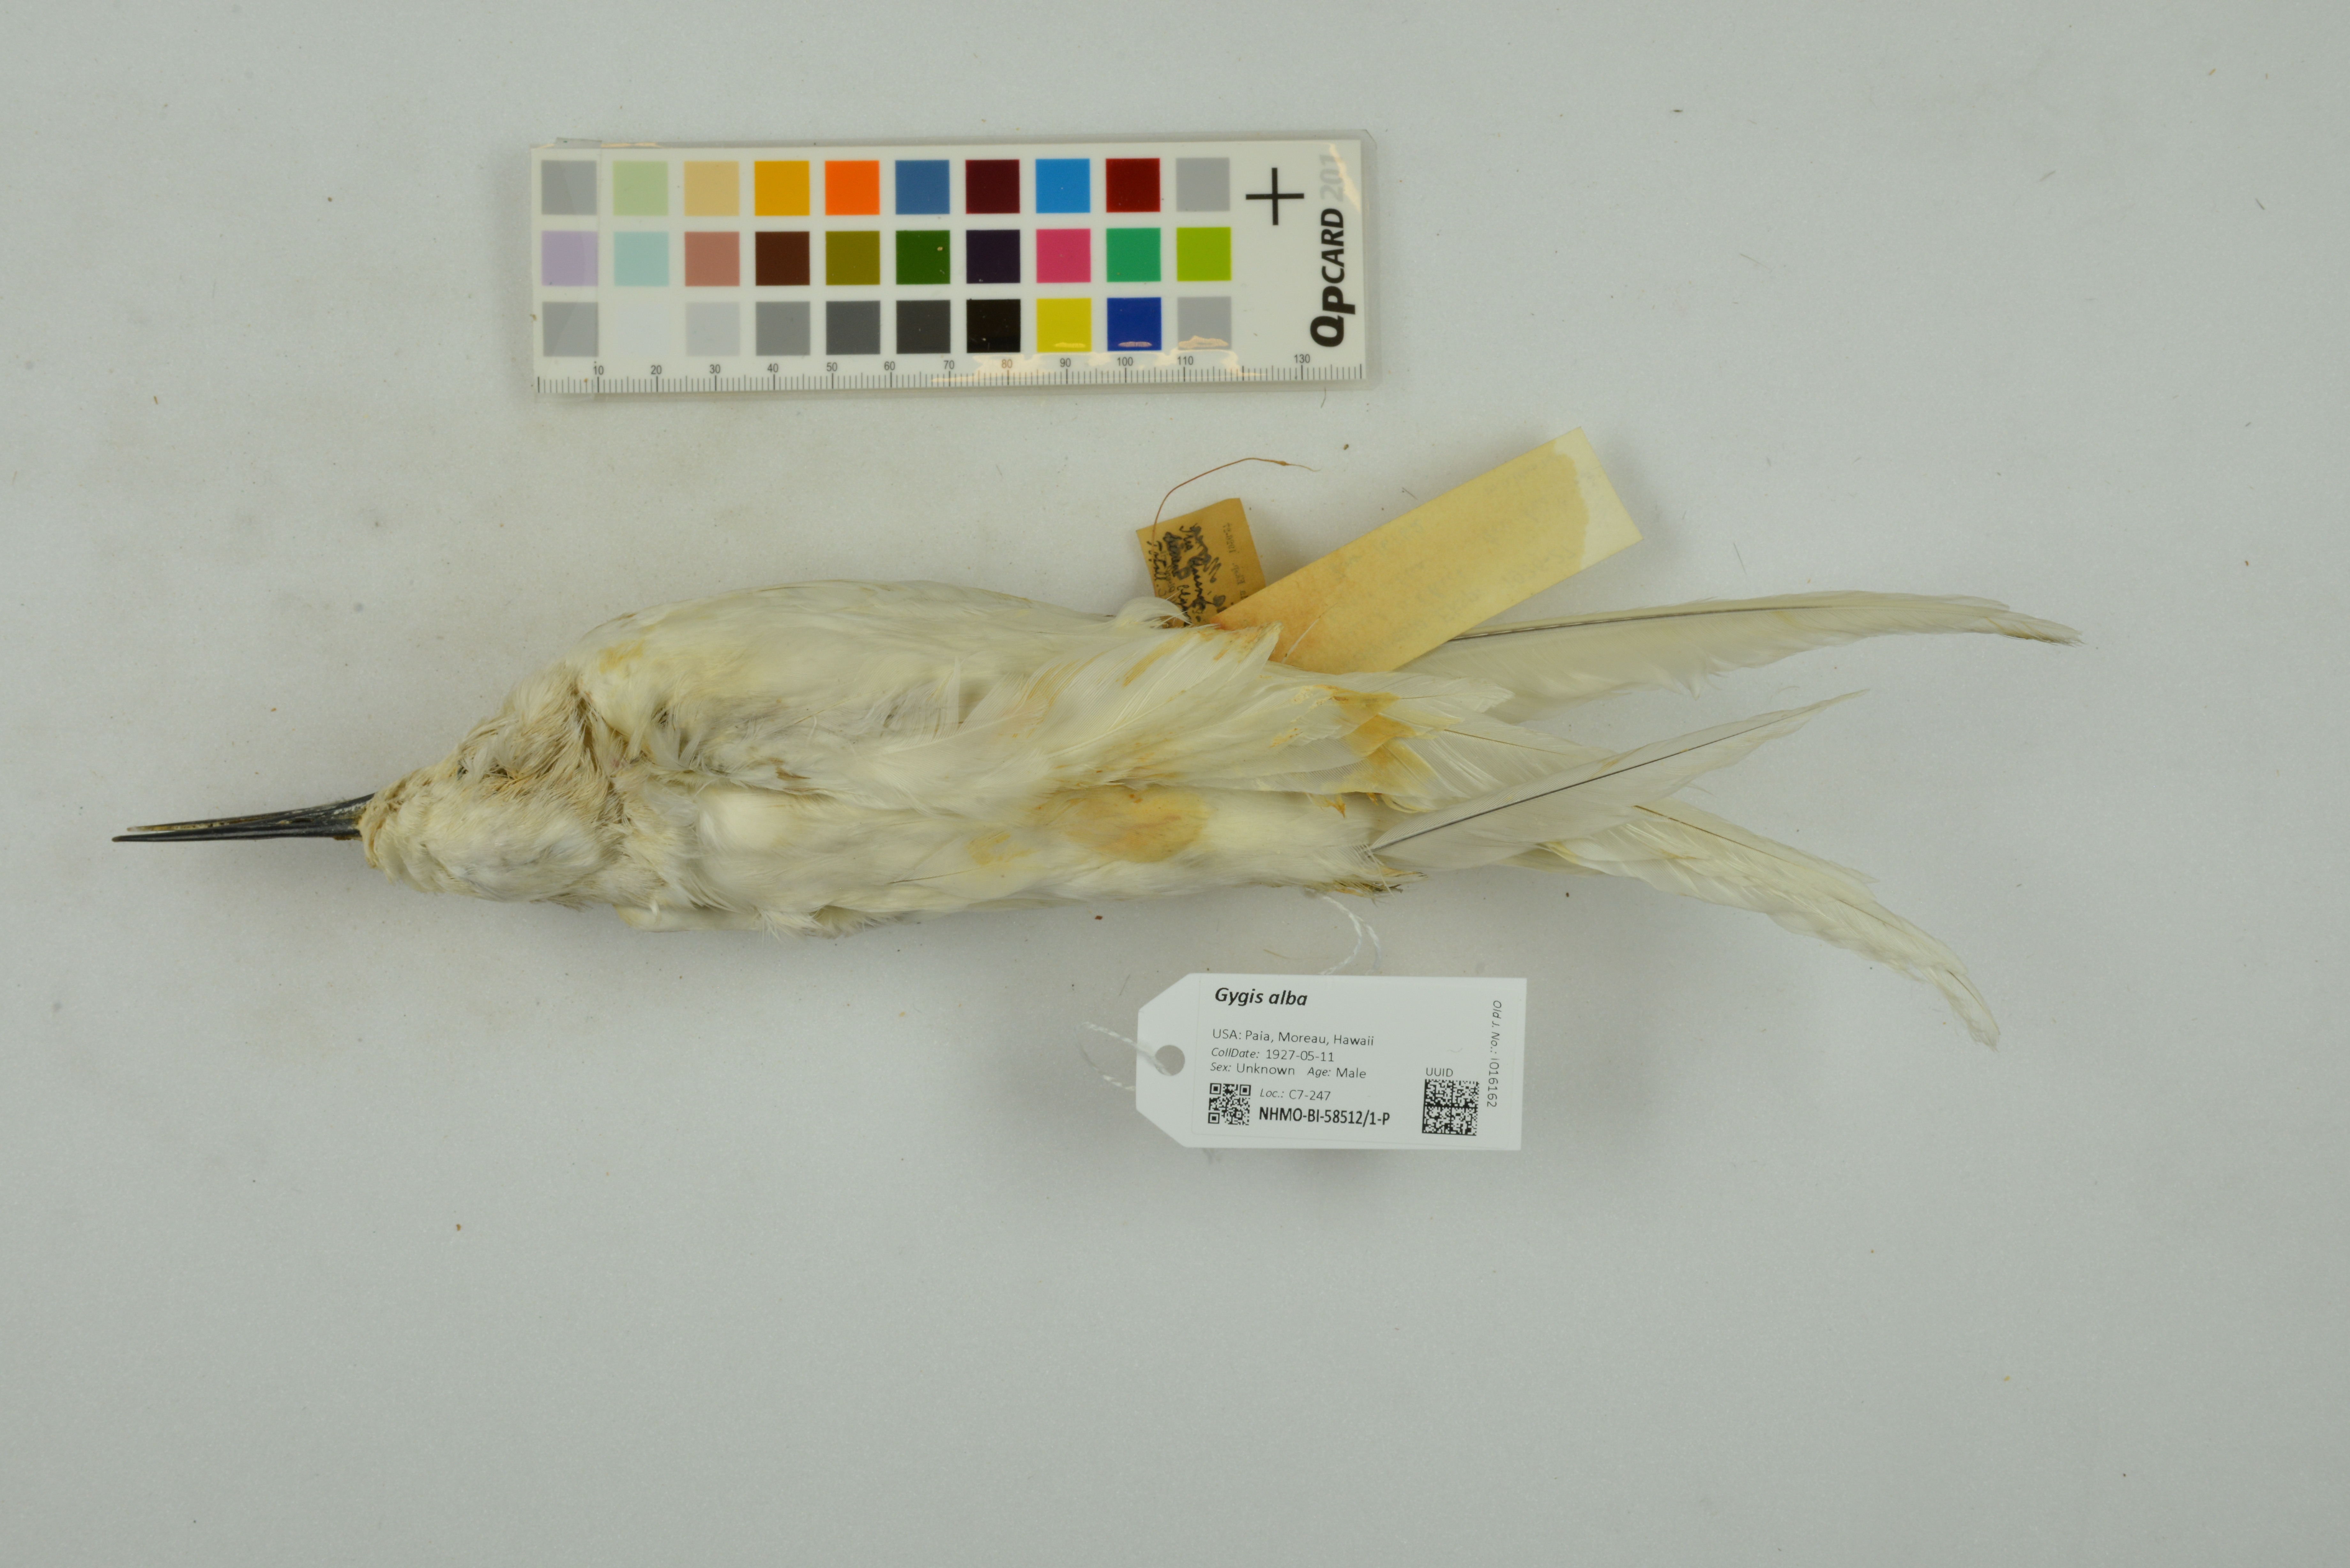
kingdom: Animalia
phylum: Chordata
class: Aves
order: Charadriiformes
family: Laridae
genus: Gygis
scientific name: Gygis alba
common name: White tern
